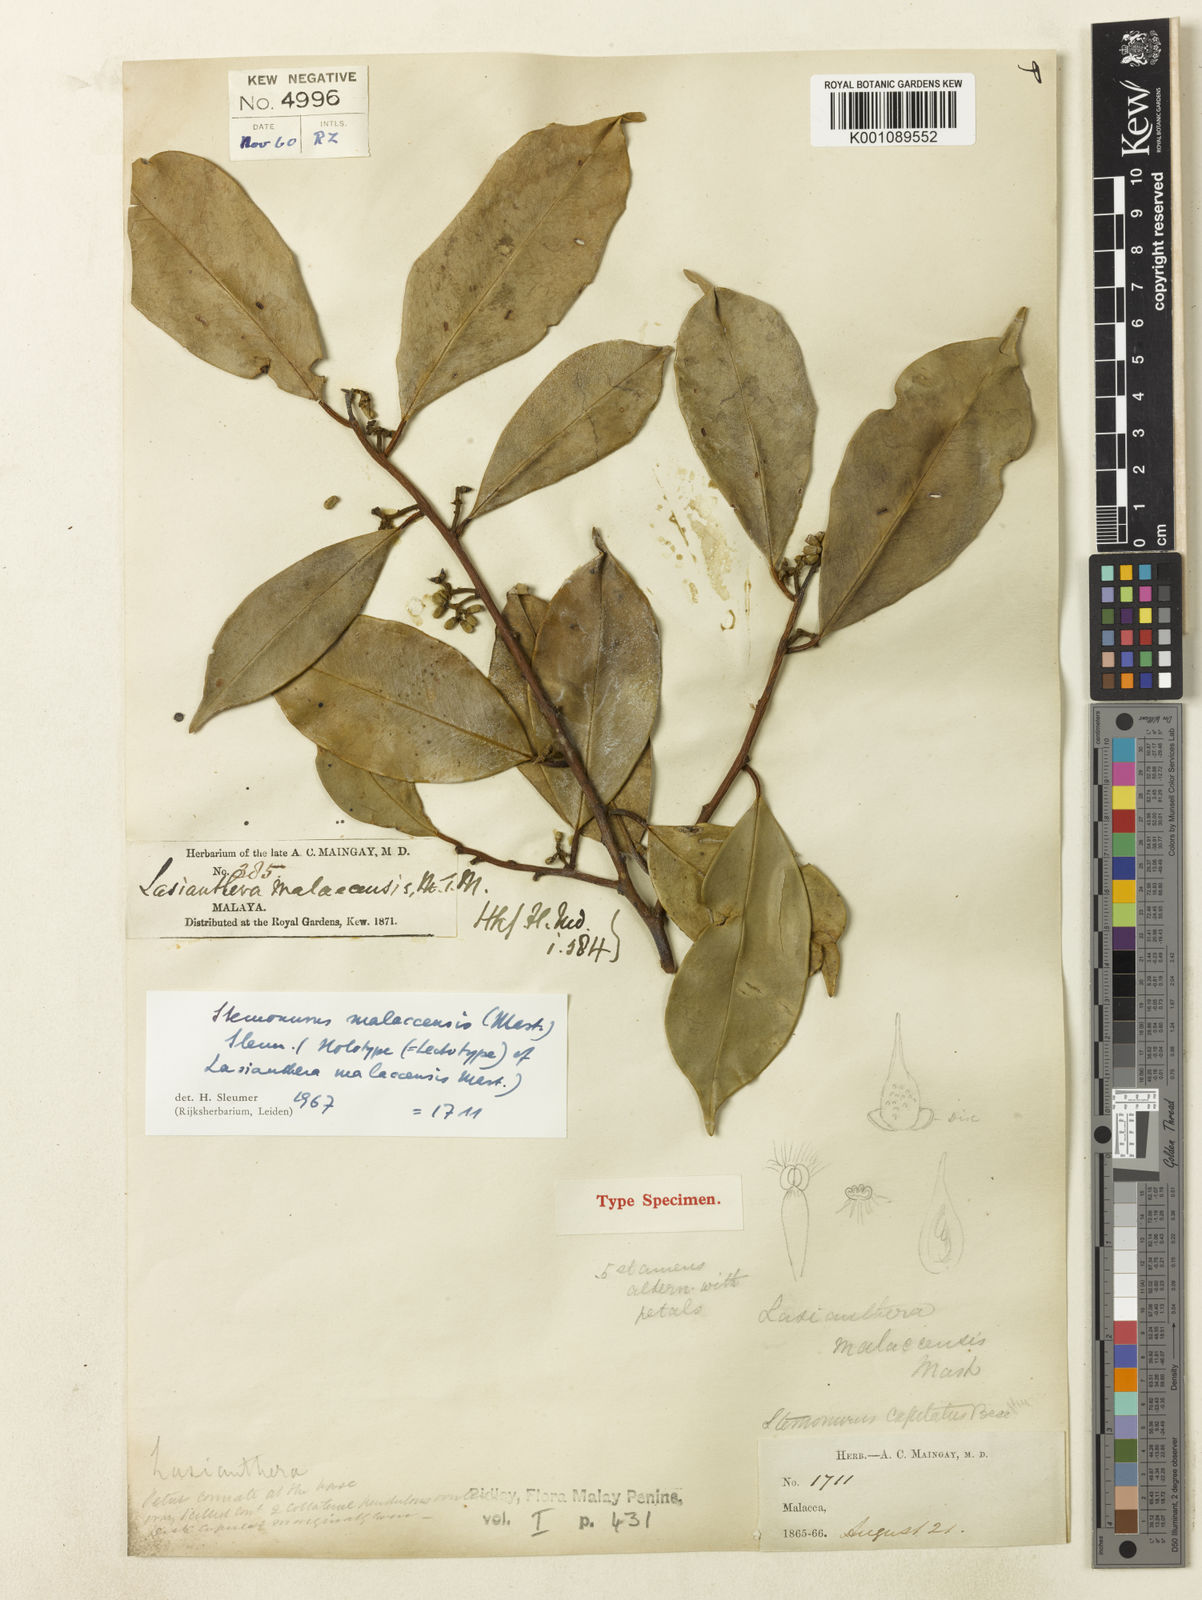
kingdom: Plantae
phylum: Tracheophyta
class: Magnoliopsida
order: Cardiopteridales
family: Stemonuraceae
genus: Stemonurus
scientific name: Stemonurus malaccensis
